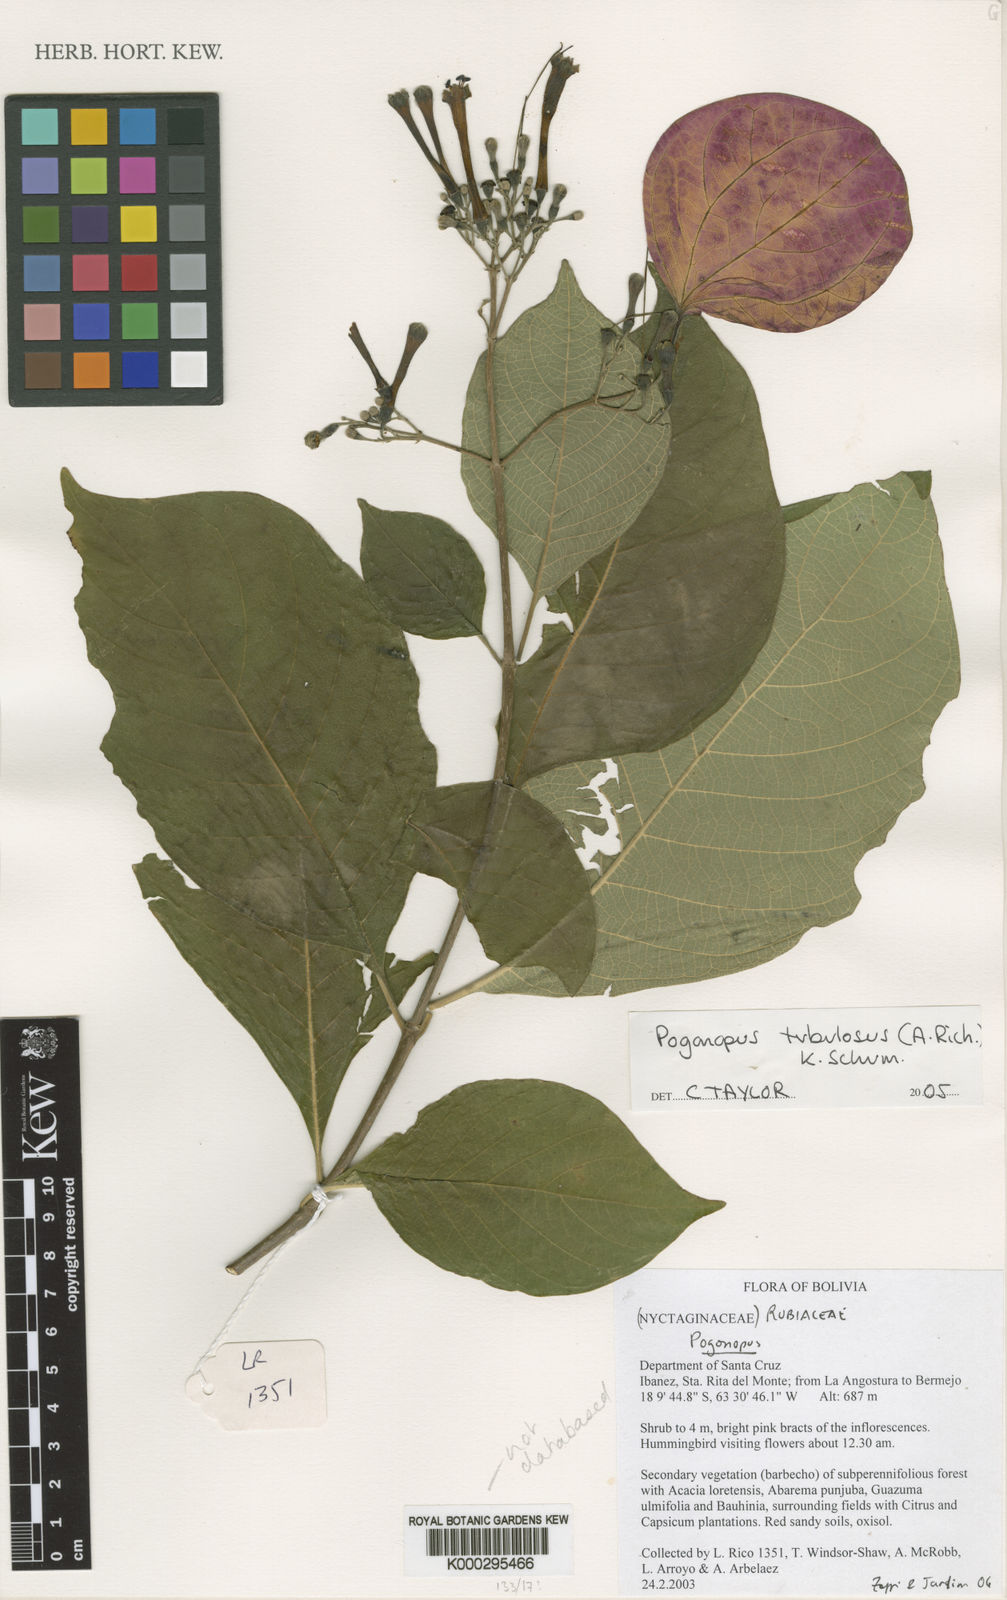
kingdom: Plantae
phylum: Tracheophyta
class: Magnoliopsida
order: Gentianales
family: Rubiaceae
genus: Pogonopus
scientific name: Pogonopus tubulosus
